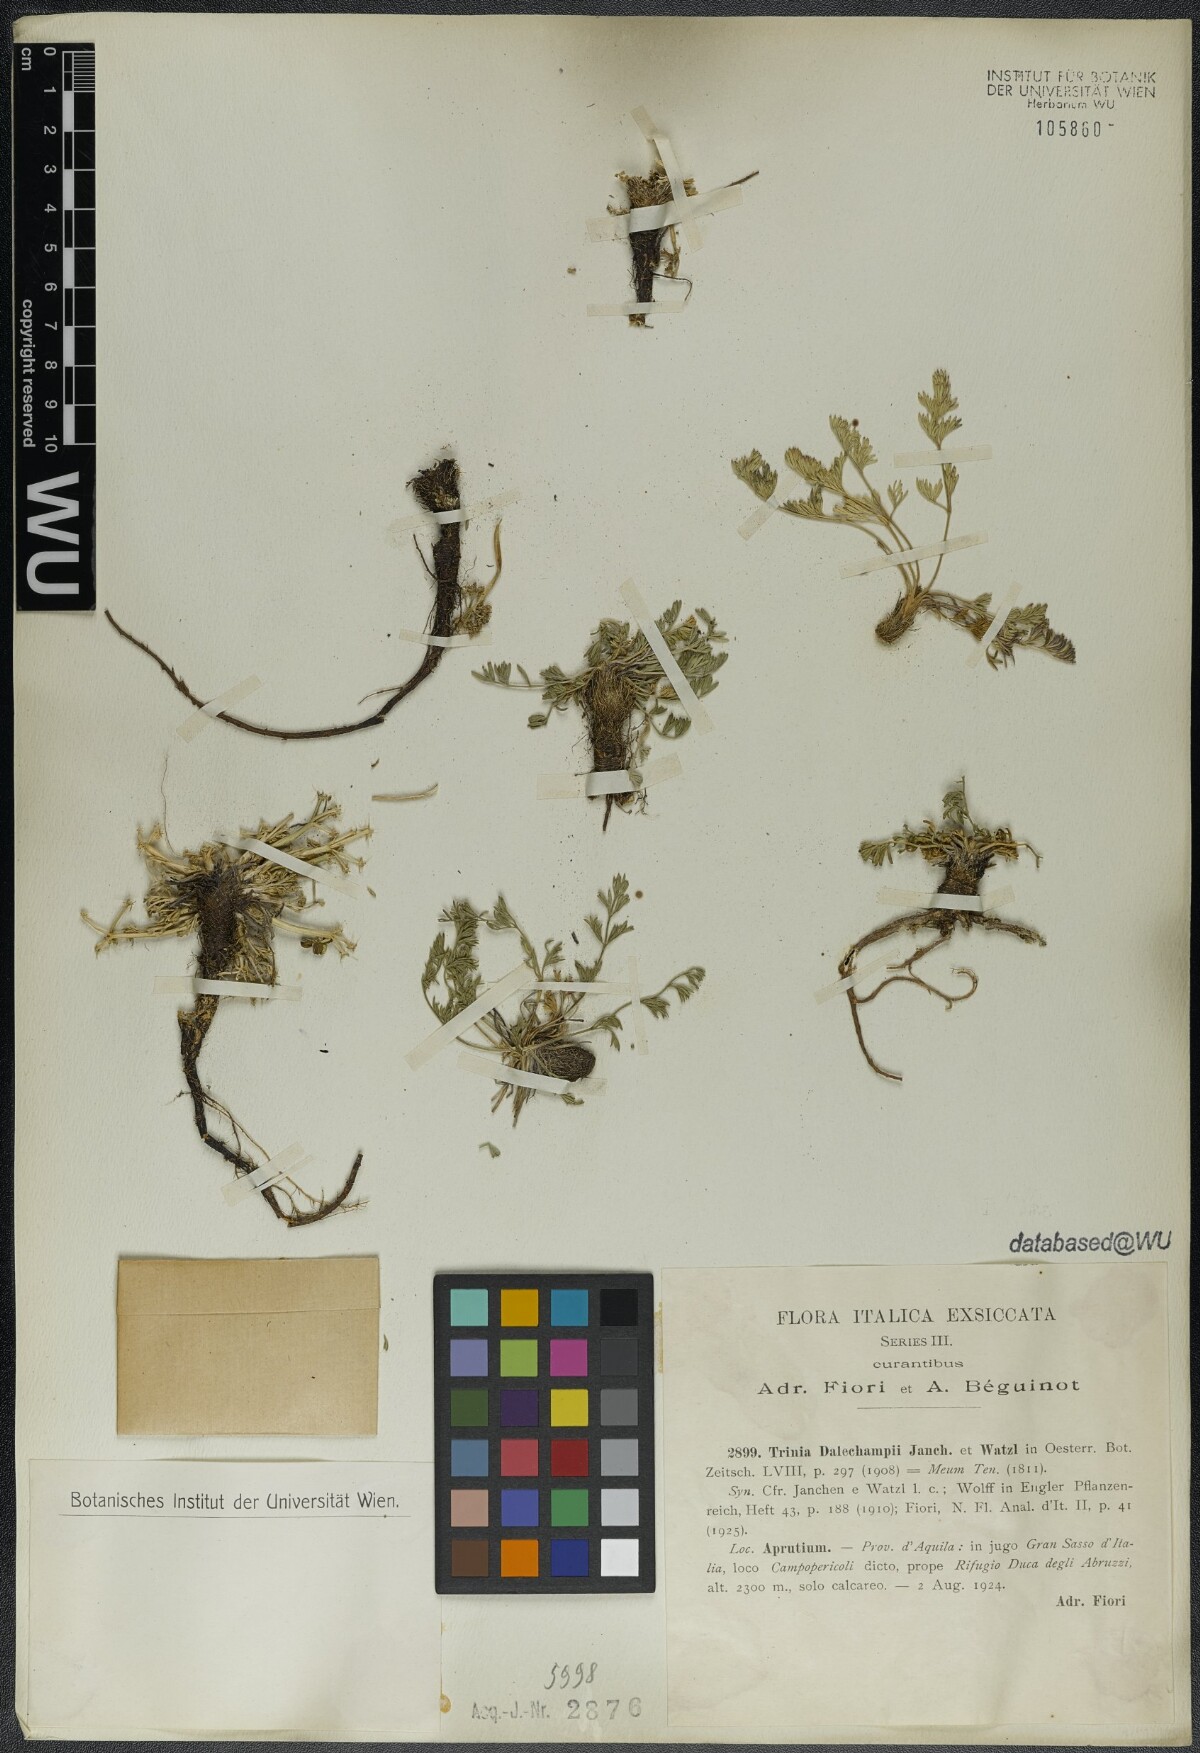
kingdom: Plantae
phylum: Tracheophyta
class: Magnoliopsida
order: Apiales
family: Apiaceae
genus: Trinia
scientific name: Trinia dalechampii
